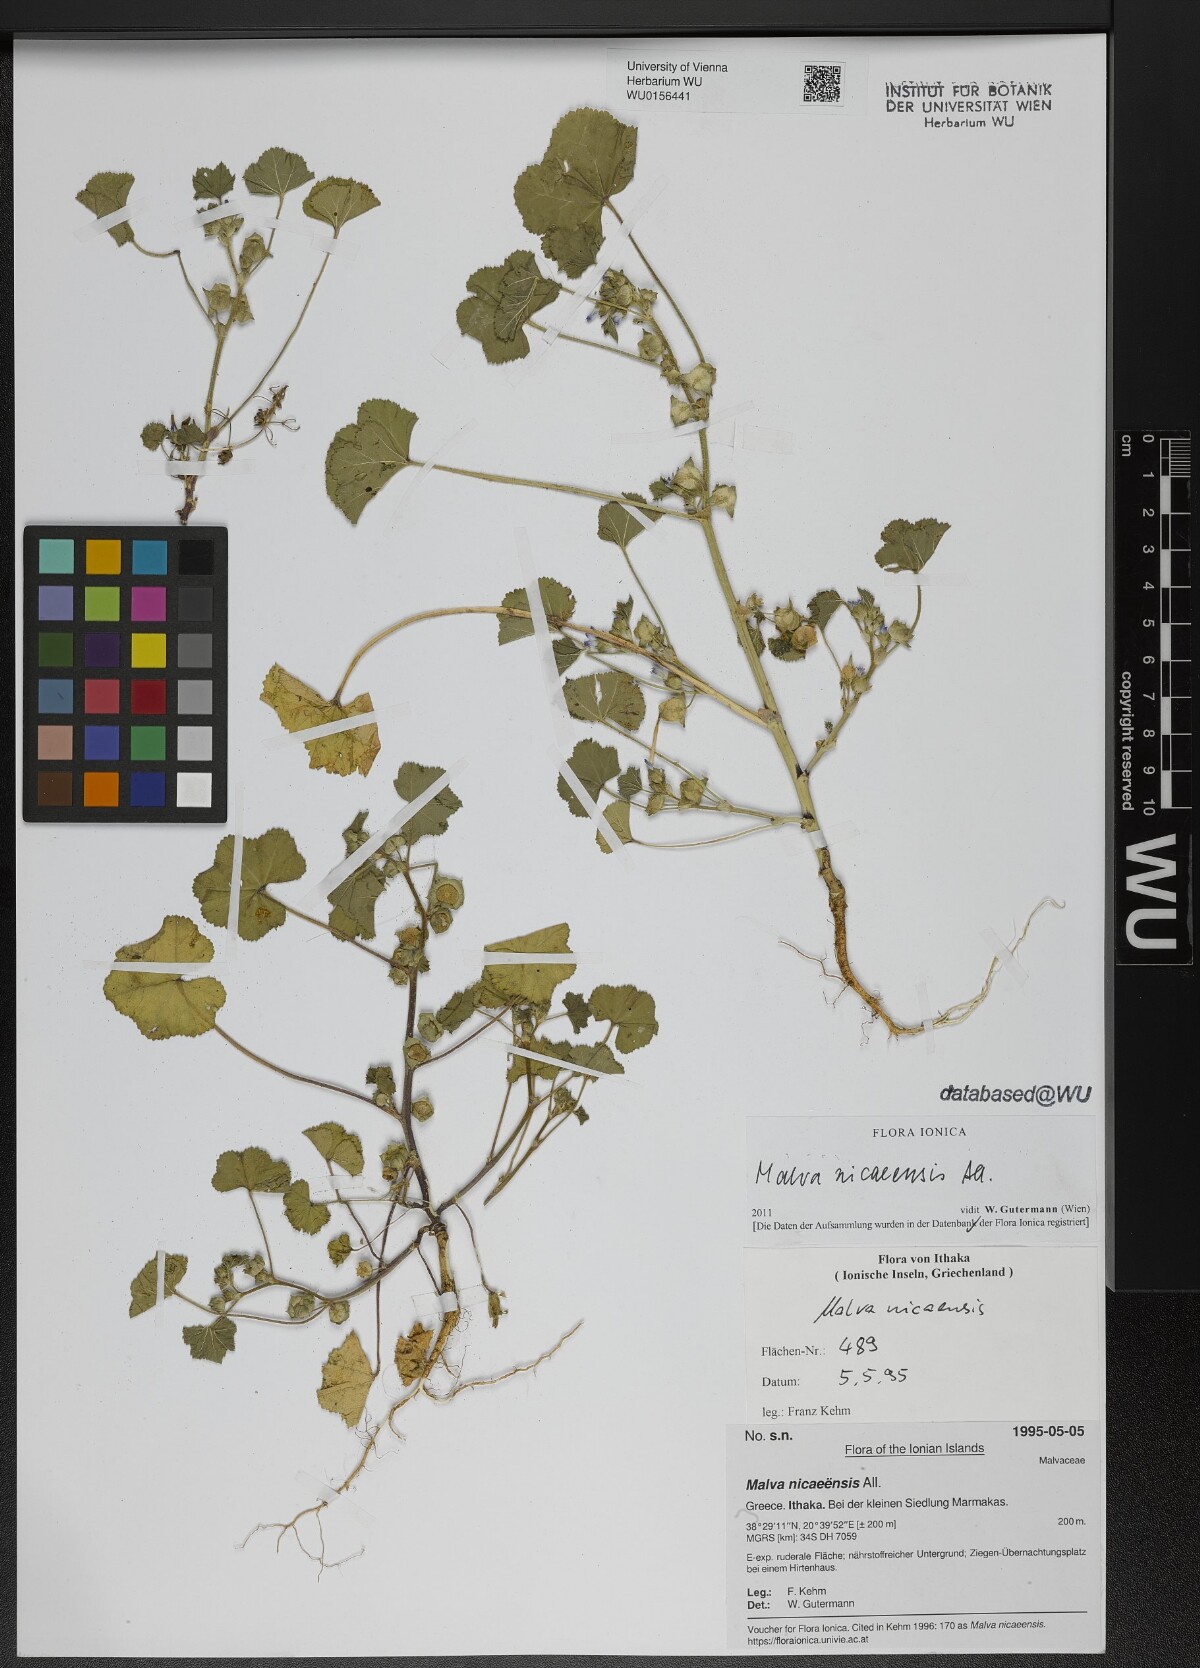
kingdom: Plantae
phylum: Tracheophyta
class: Magnoliopsida
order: Malvales
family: Malvaceae
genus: Malva
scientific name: Malva nicaeensis
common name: French mallow
